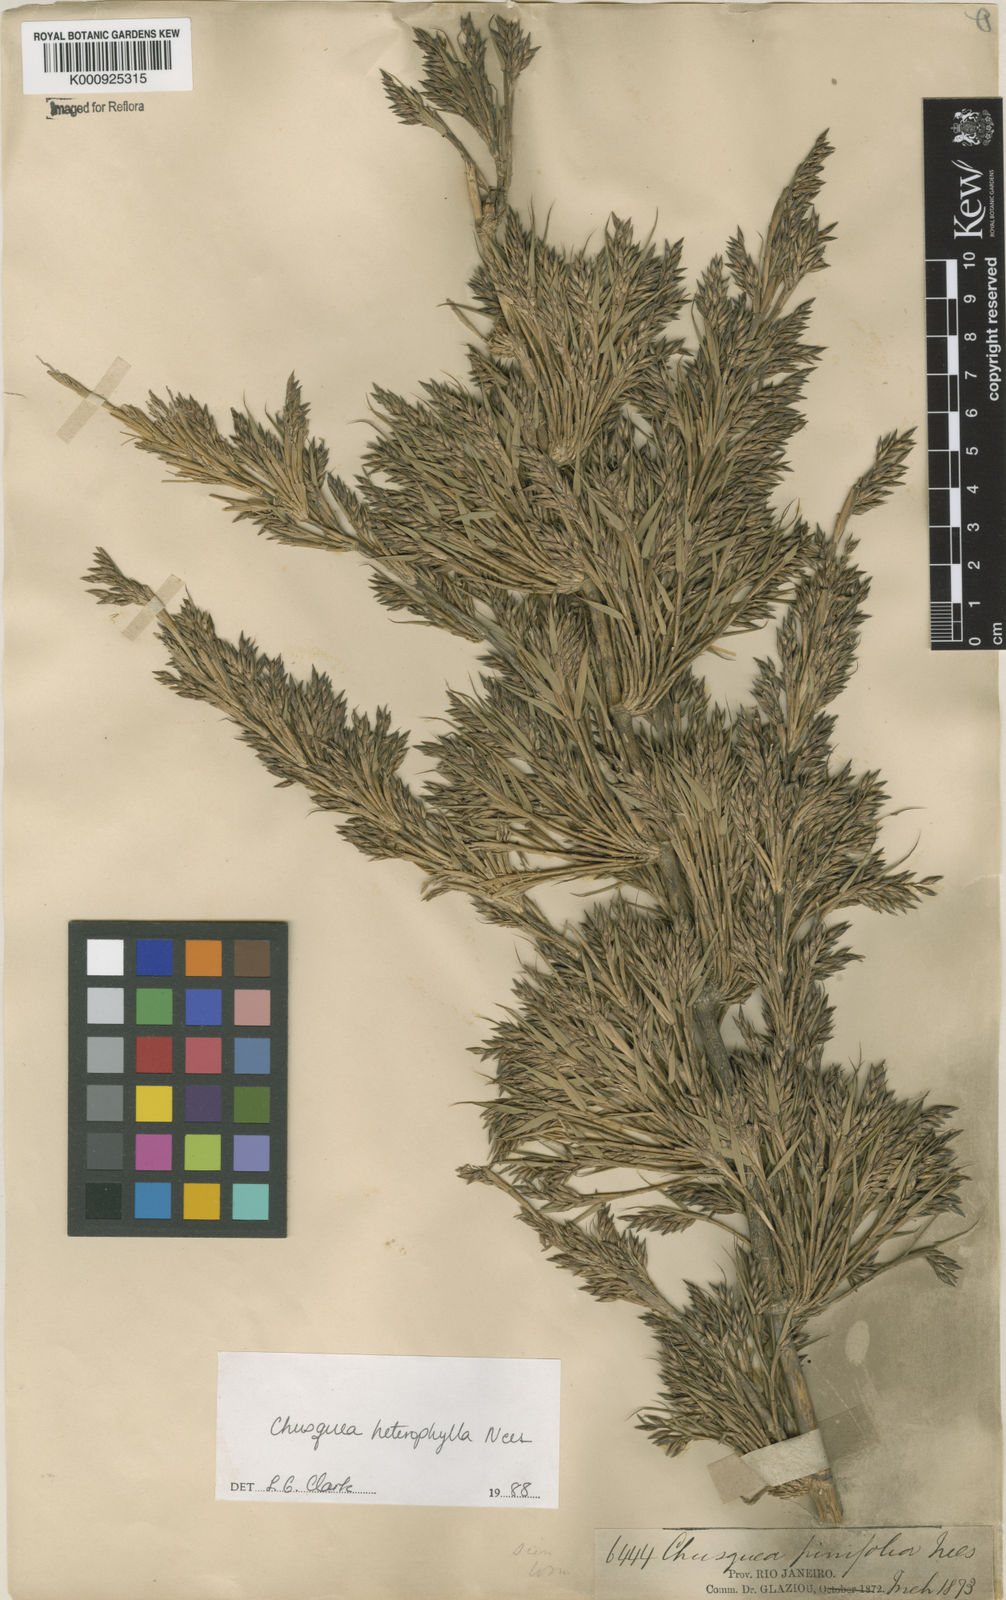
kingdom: Plantae
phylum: Tracheophyta
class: Liliopsida
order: Poales
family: Poaceae
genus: Chusquea
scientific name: Chusquea heterophylla
